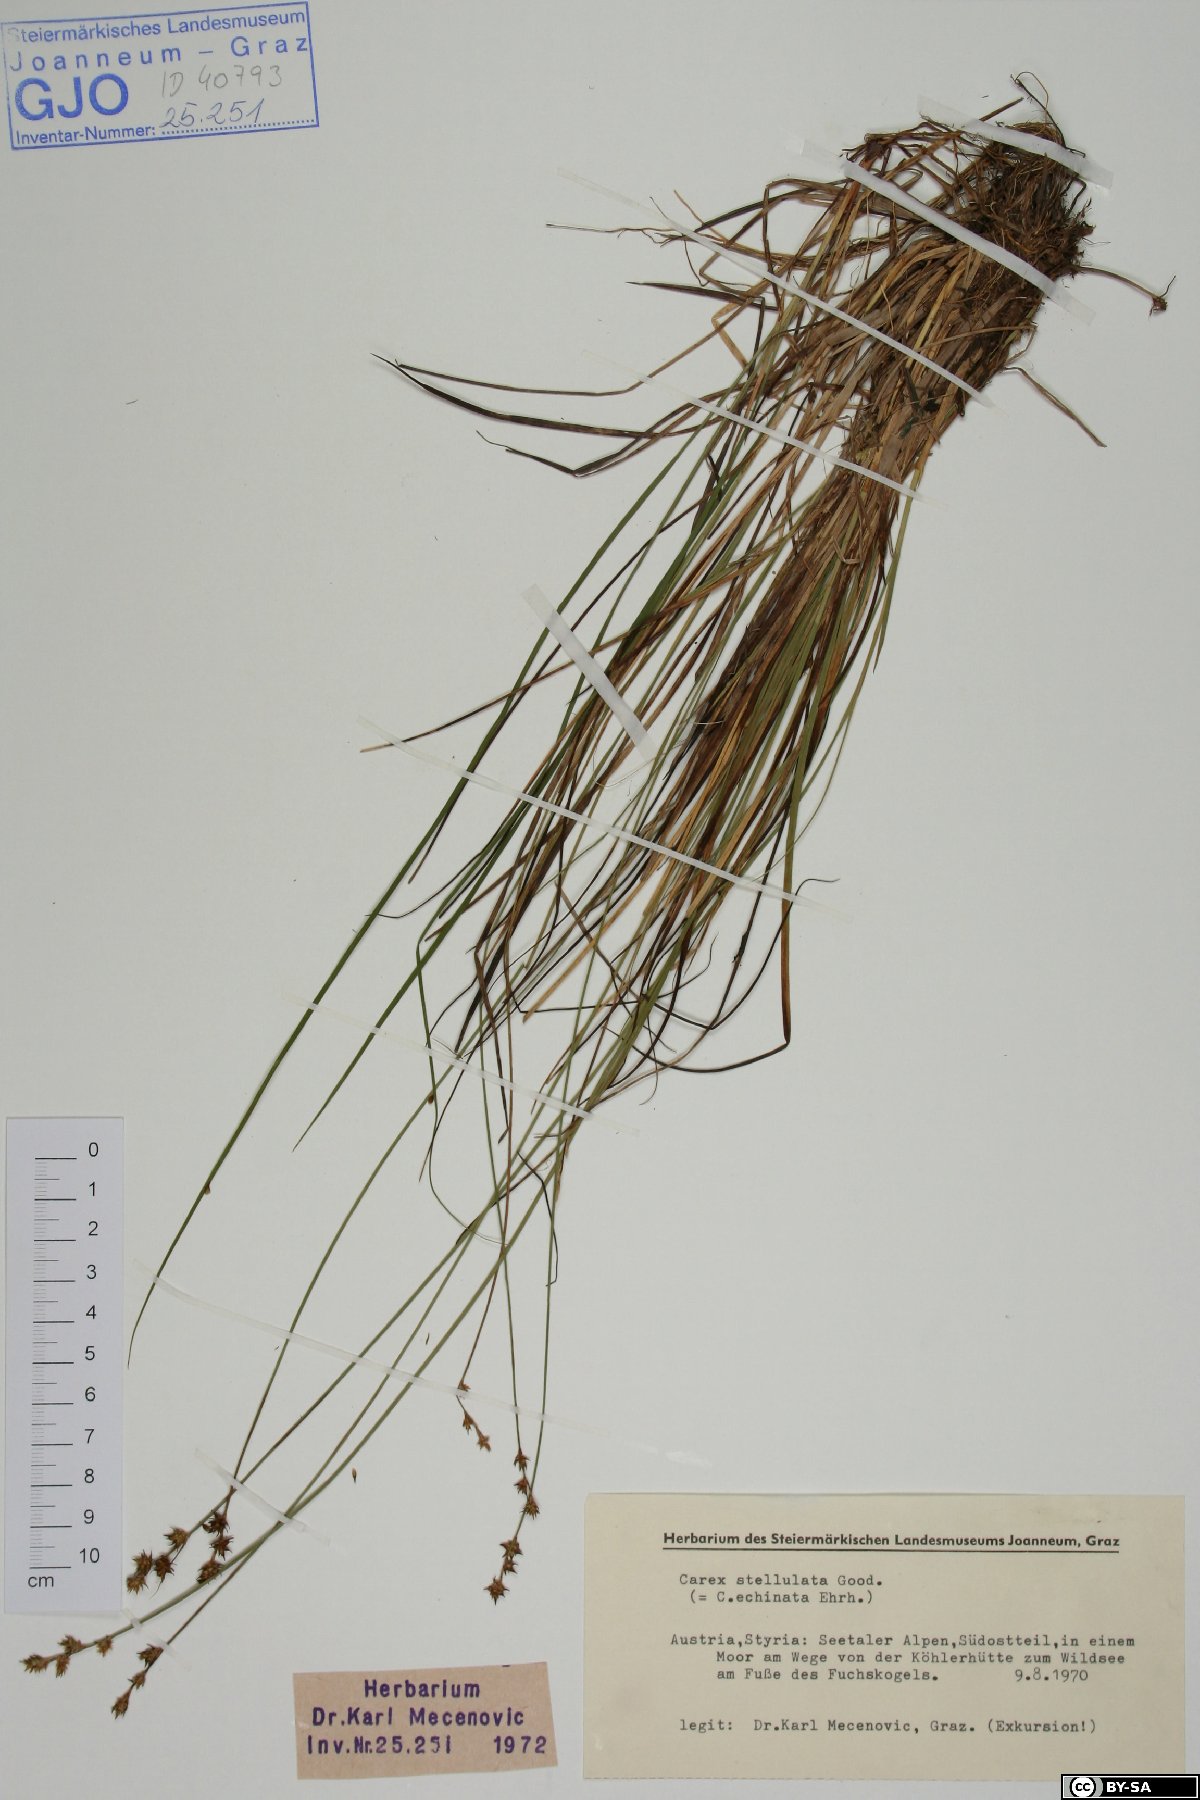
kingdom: Plantae
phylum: Tracheophyta
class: Liliopsida
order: Poales
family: Cyperaceae
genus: Carex
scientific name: Carex echinata
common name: Star sedge
